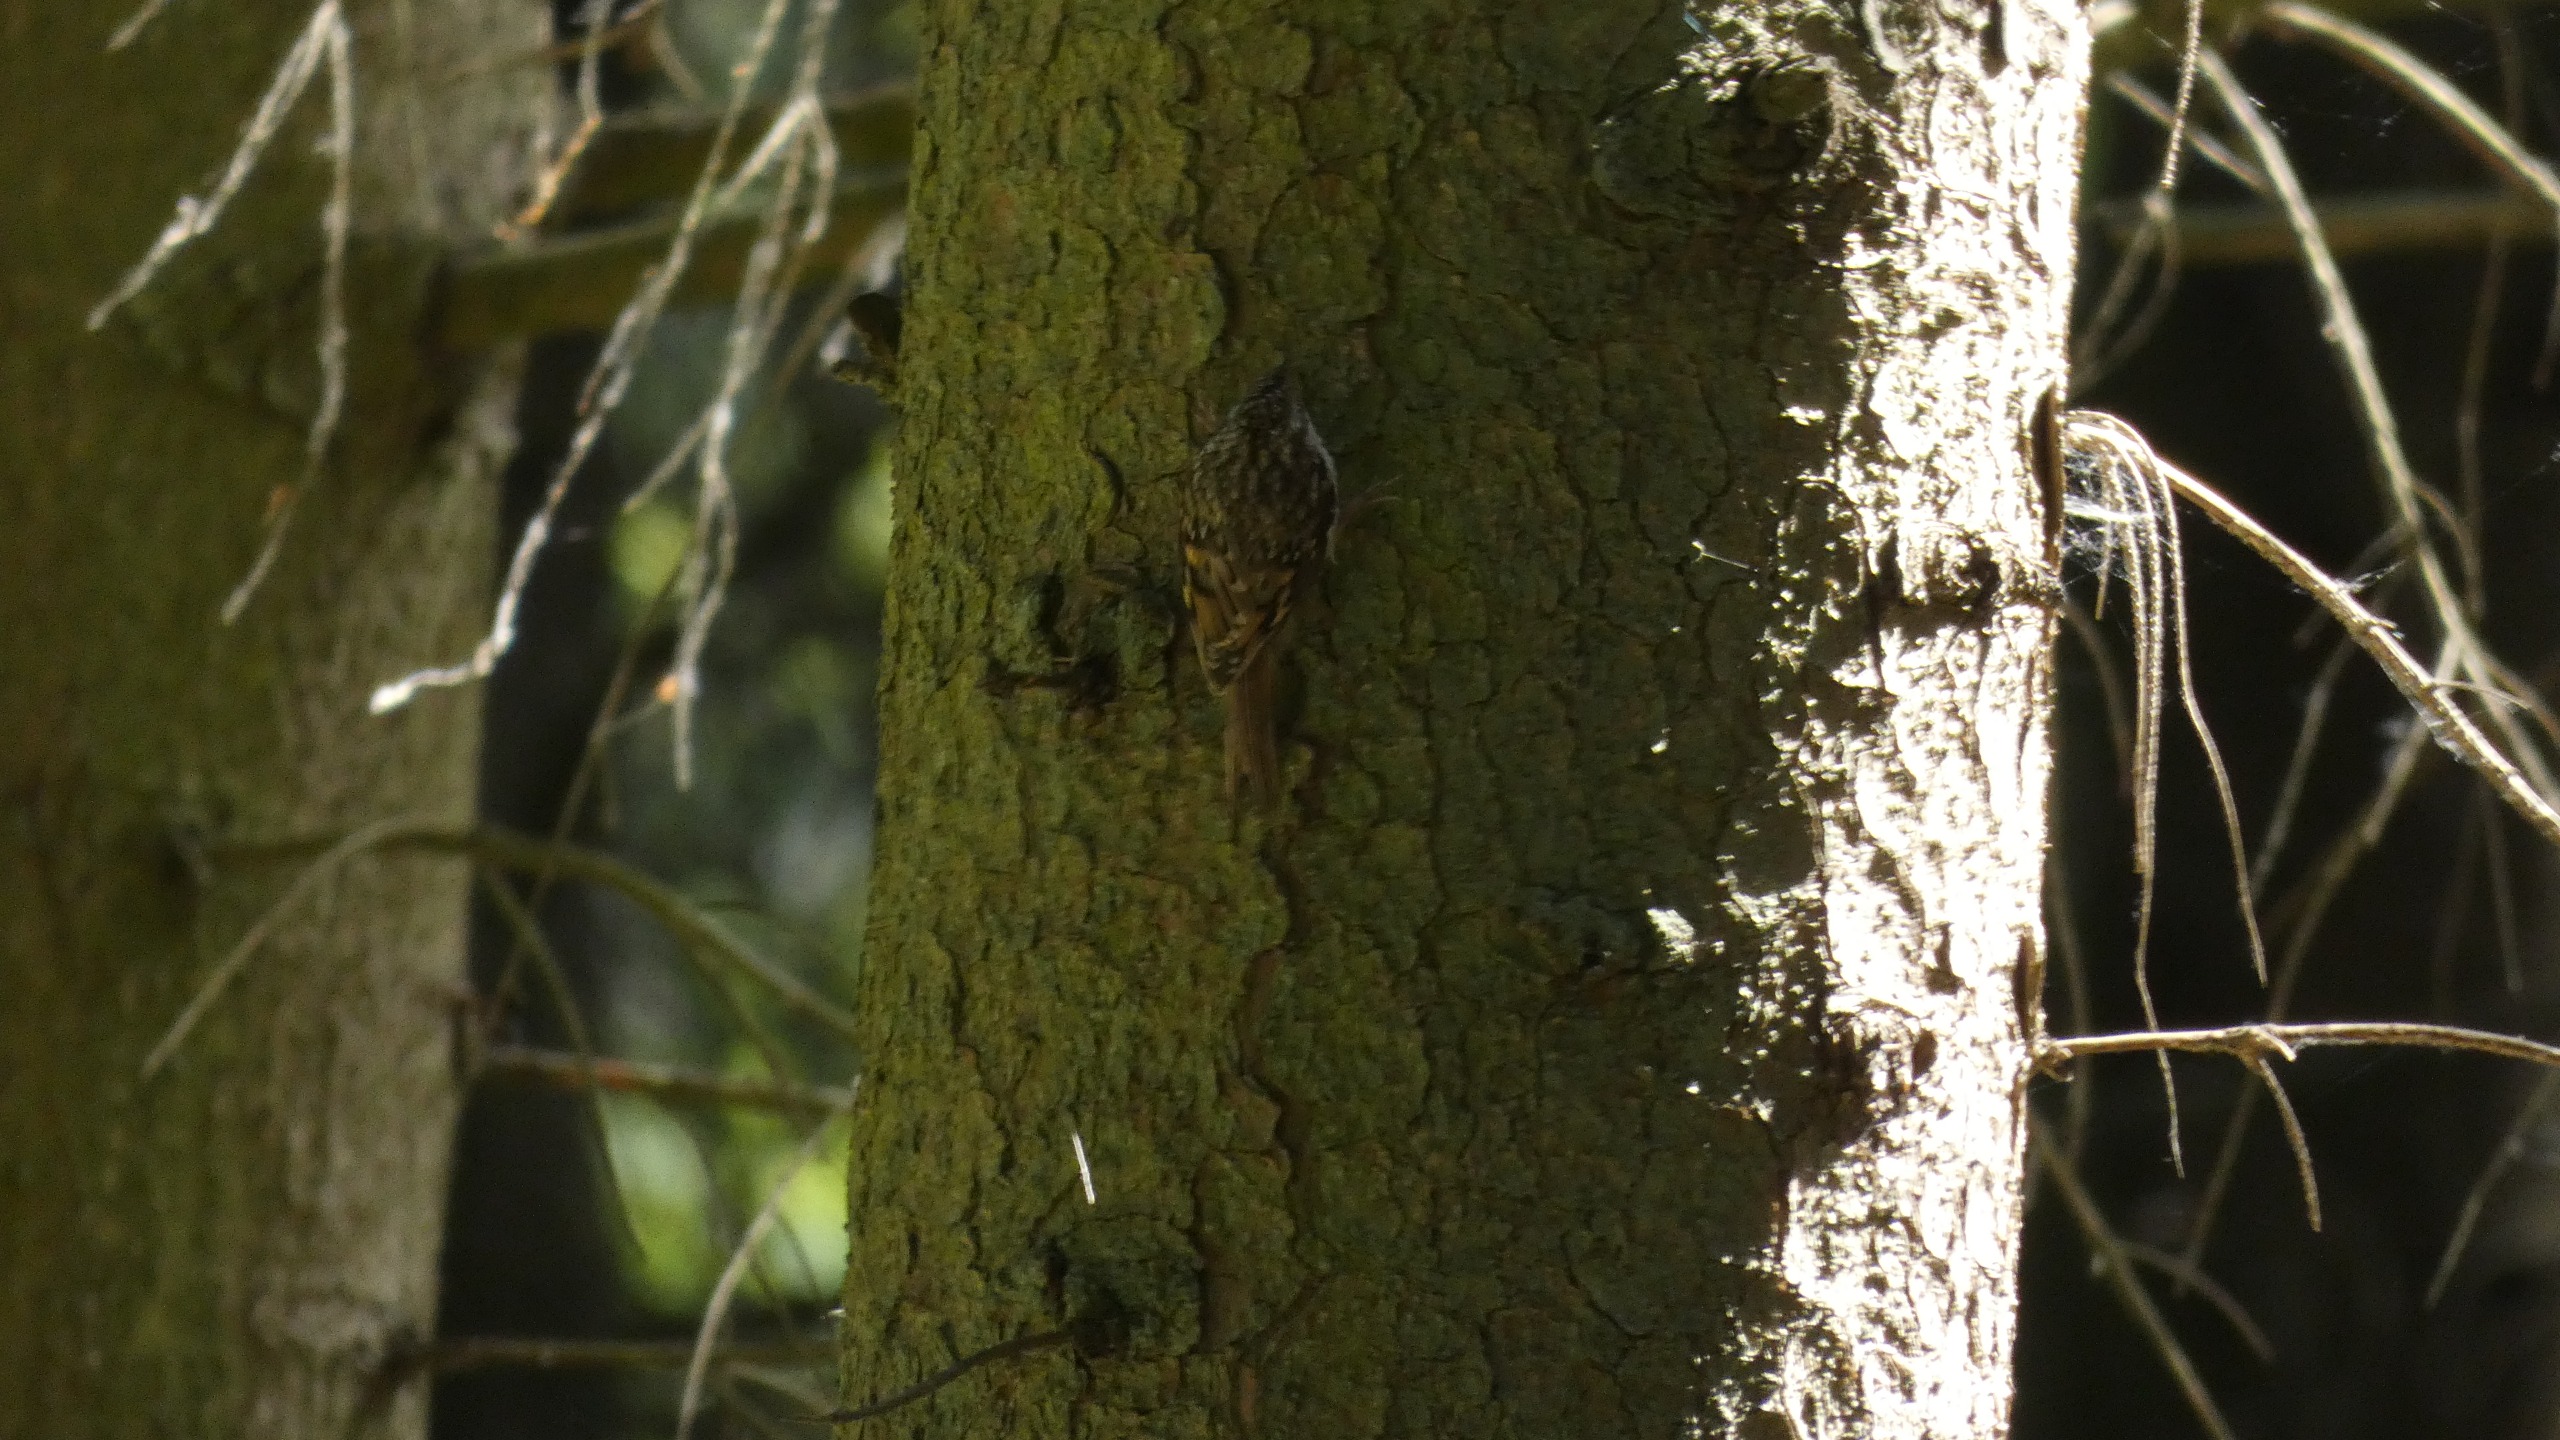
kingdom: Animalia
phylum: Chordata
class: Aves
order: Passeriformes
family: Certhiidae
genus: Certhia
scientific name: Certhia familiaris
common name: Træløber
